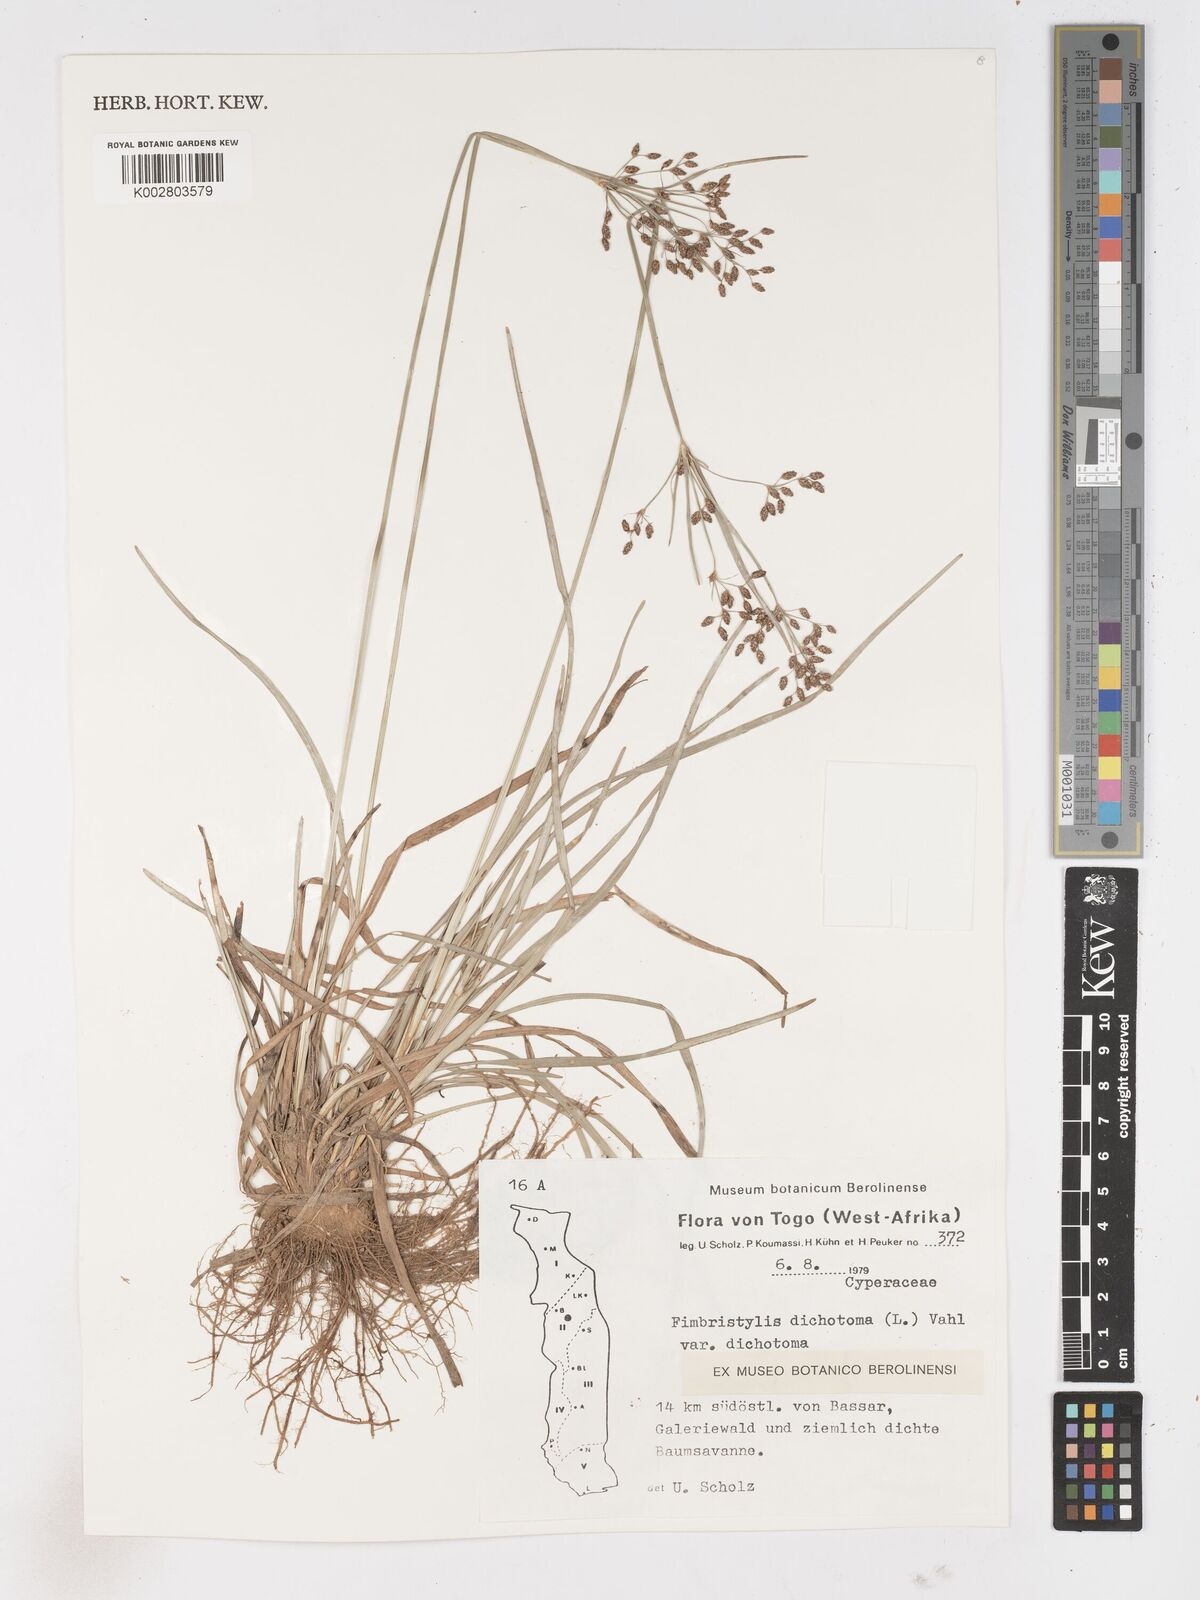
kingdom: Plantae
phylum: Tracheophyta
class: Liliopsida
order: Poales
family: Cyperaceae
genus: Fimbristylis
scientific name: Fimbristylis dichotoma
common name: Forked fimbry
